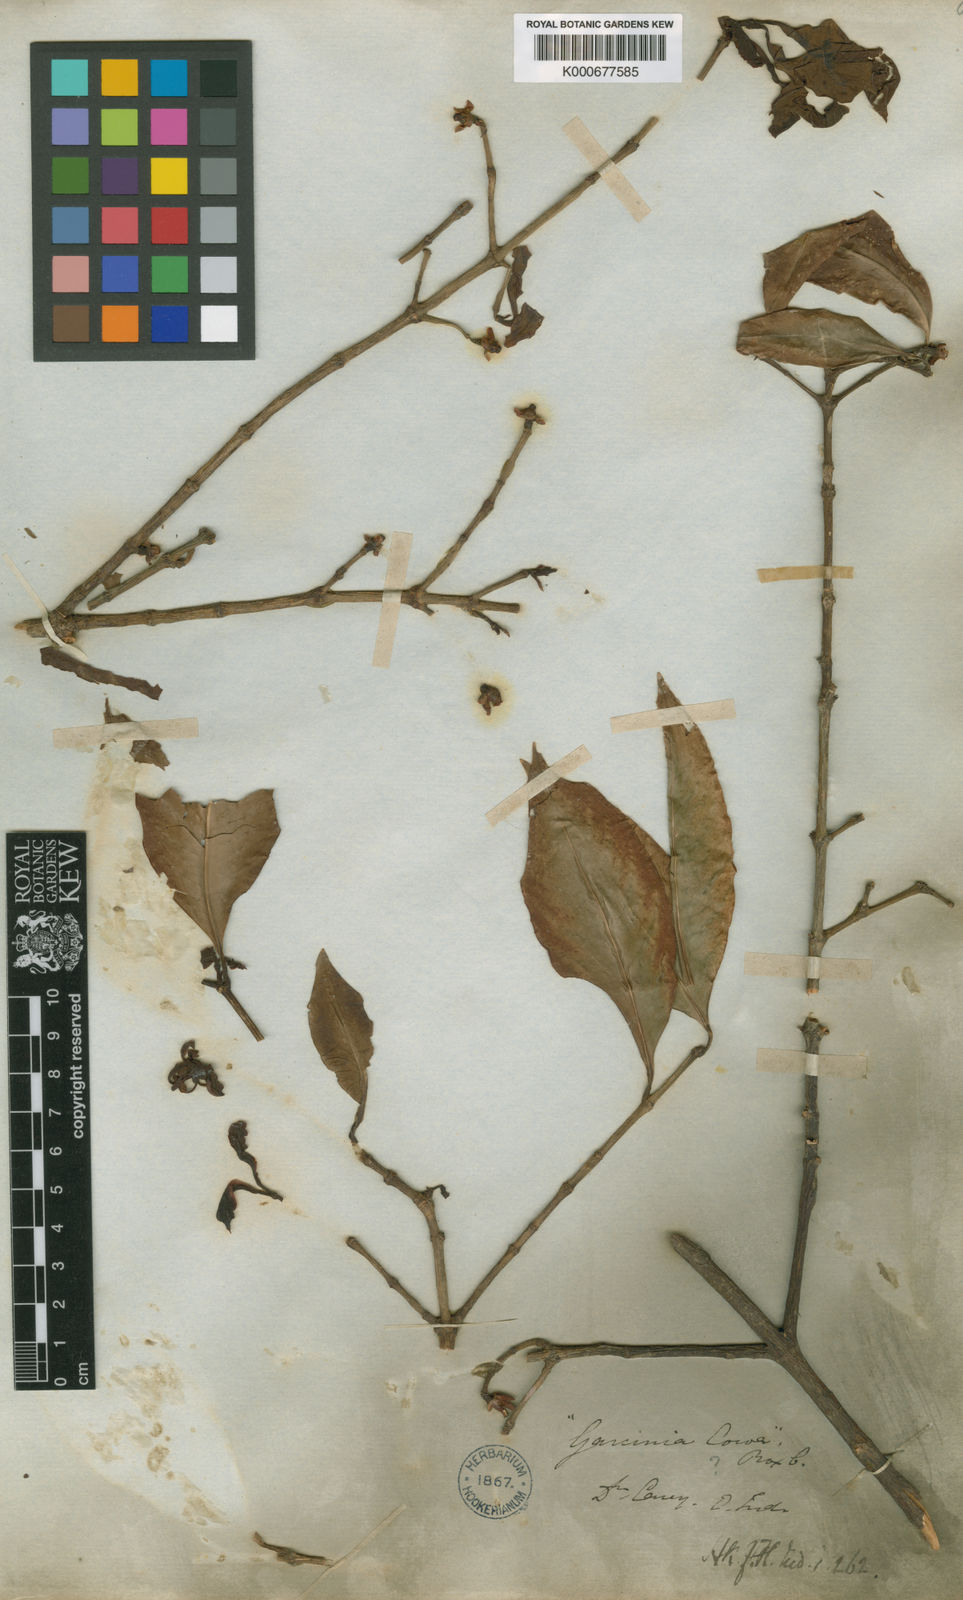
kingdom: Plantae
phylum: Tracheophyta
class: Magnoliopsida
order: Malpighiales
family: Clusiaceae
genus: Garcinia
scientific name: Garcinia
